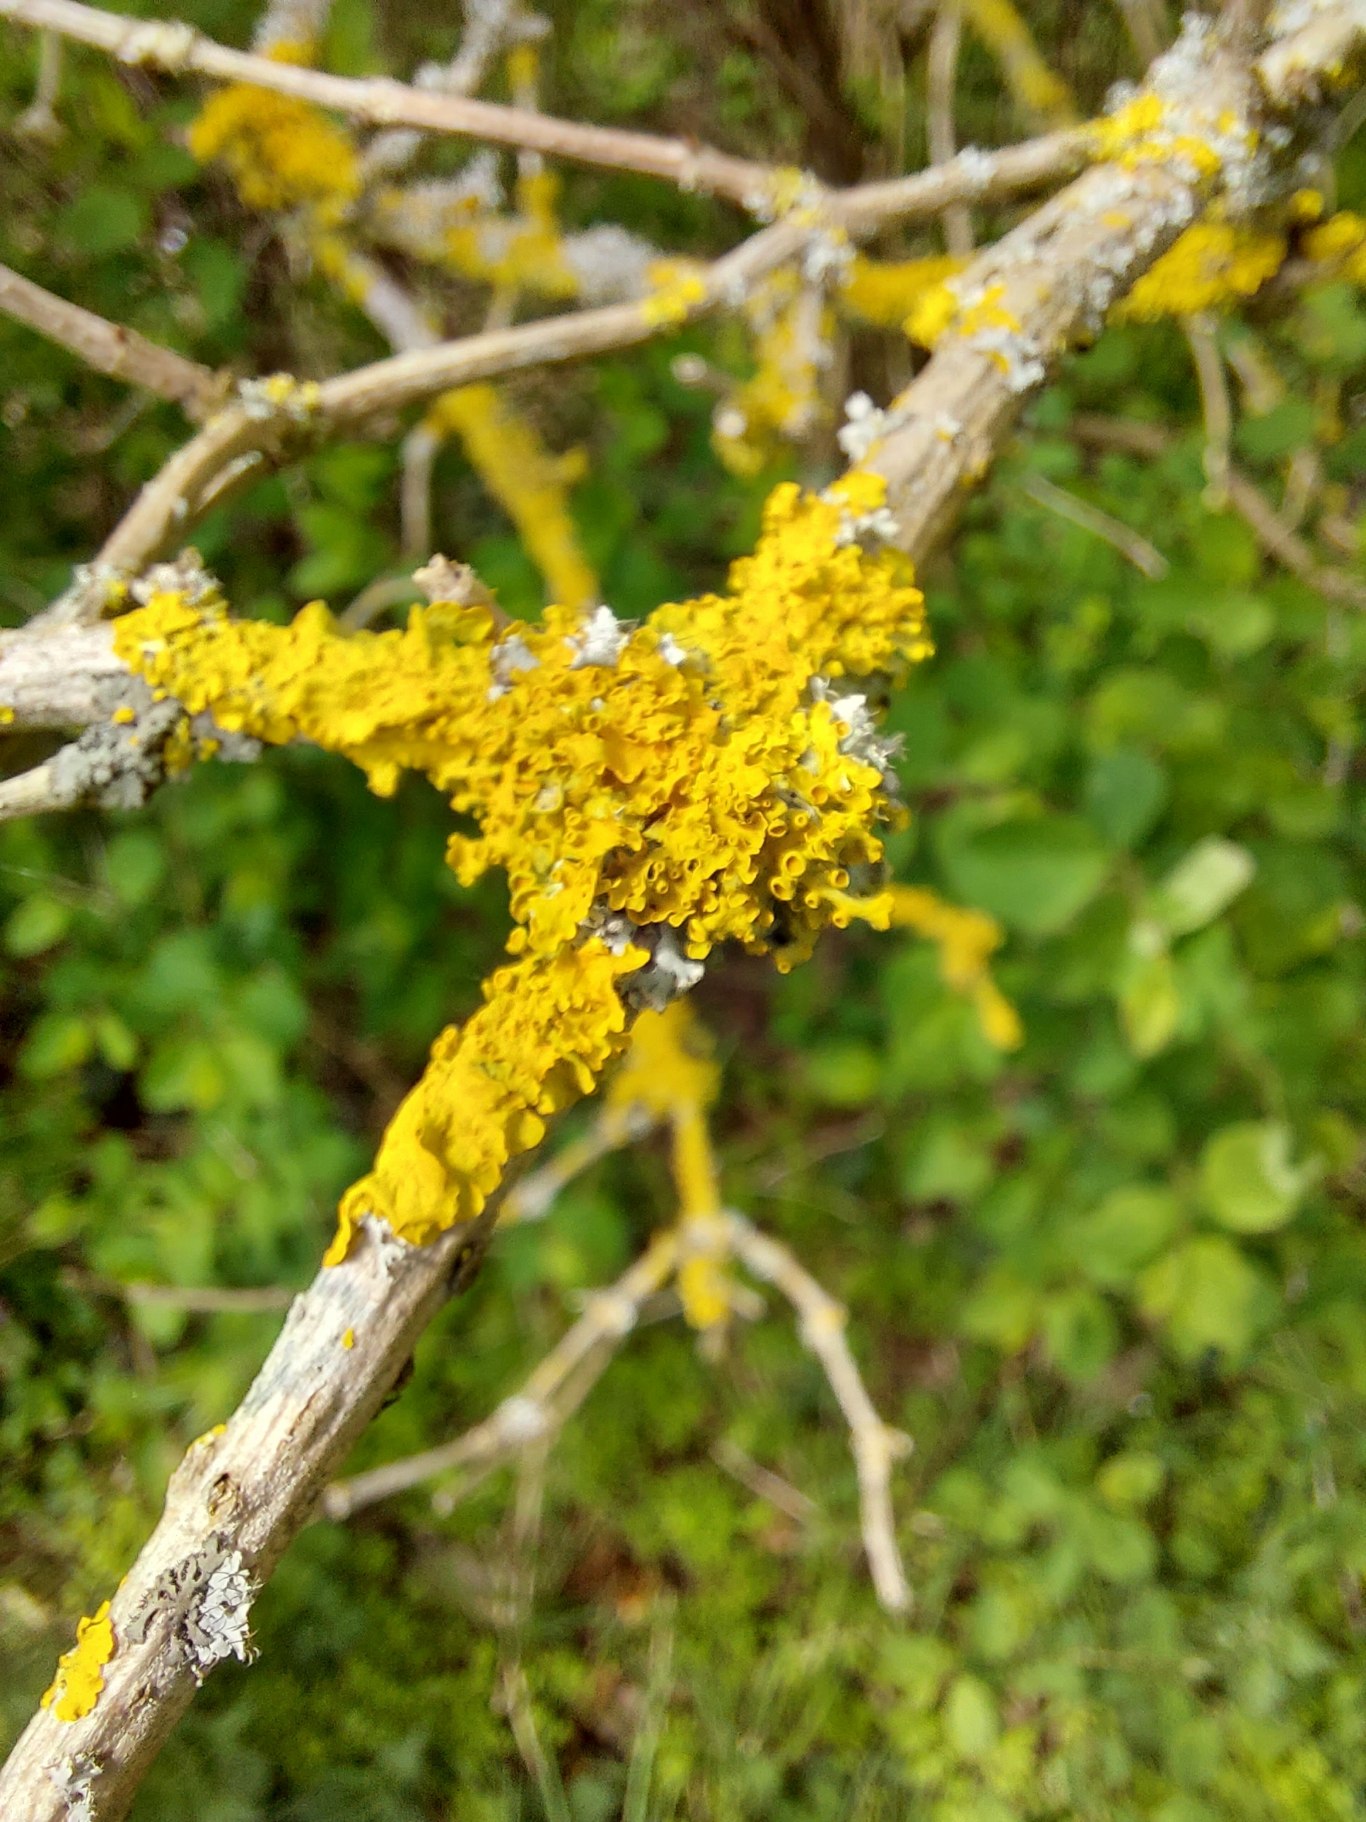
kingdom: Fungi
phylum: Ascomycota
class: Lecanoromycetes
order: Teloschistales
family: Teloschistaceae
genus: Xanthoria
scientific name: Xanthoria parietina
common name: Almindelig væggelav
